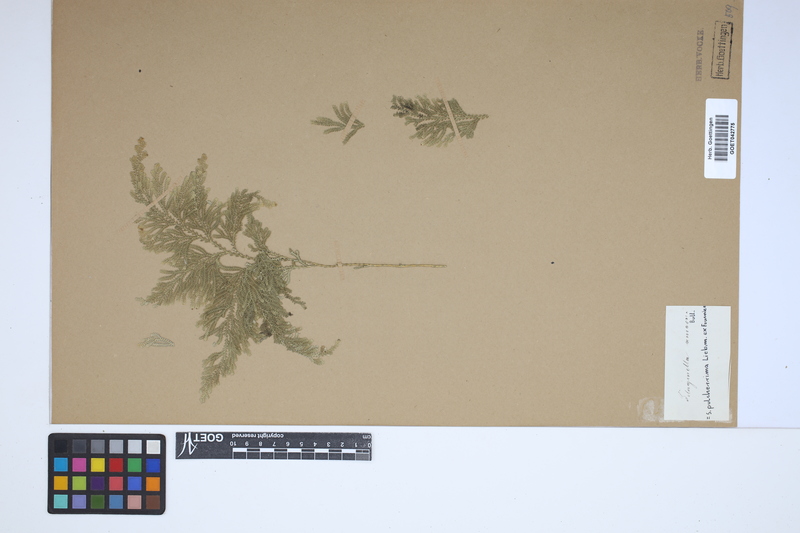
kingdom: Plantae
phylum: Tracheophyta
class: Lycopodiopsida
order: Selaginellales
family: Selaginellaceae
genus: Selaginella
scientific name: Selaginella pulcherrima
